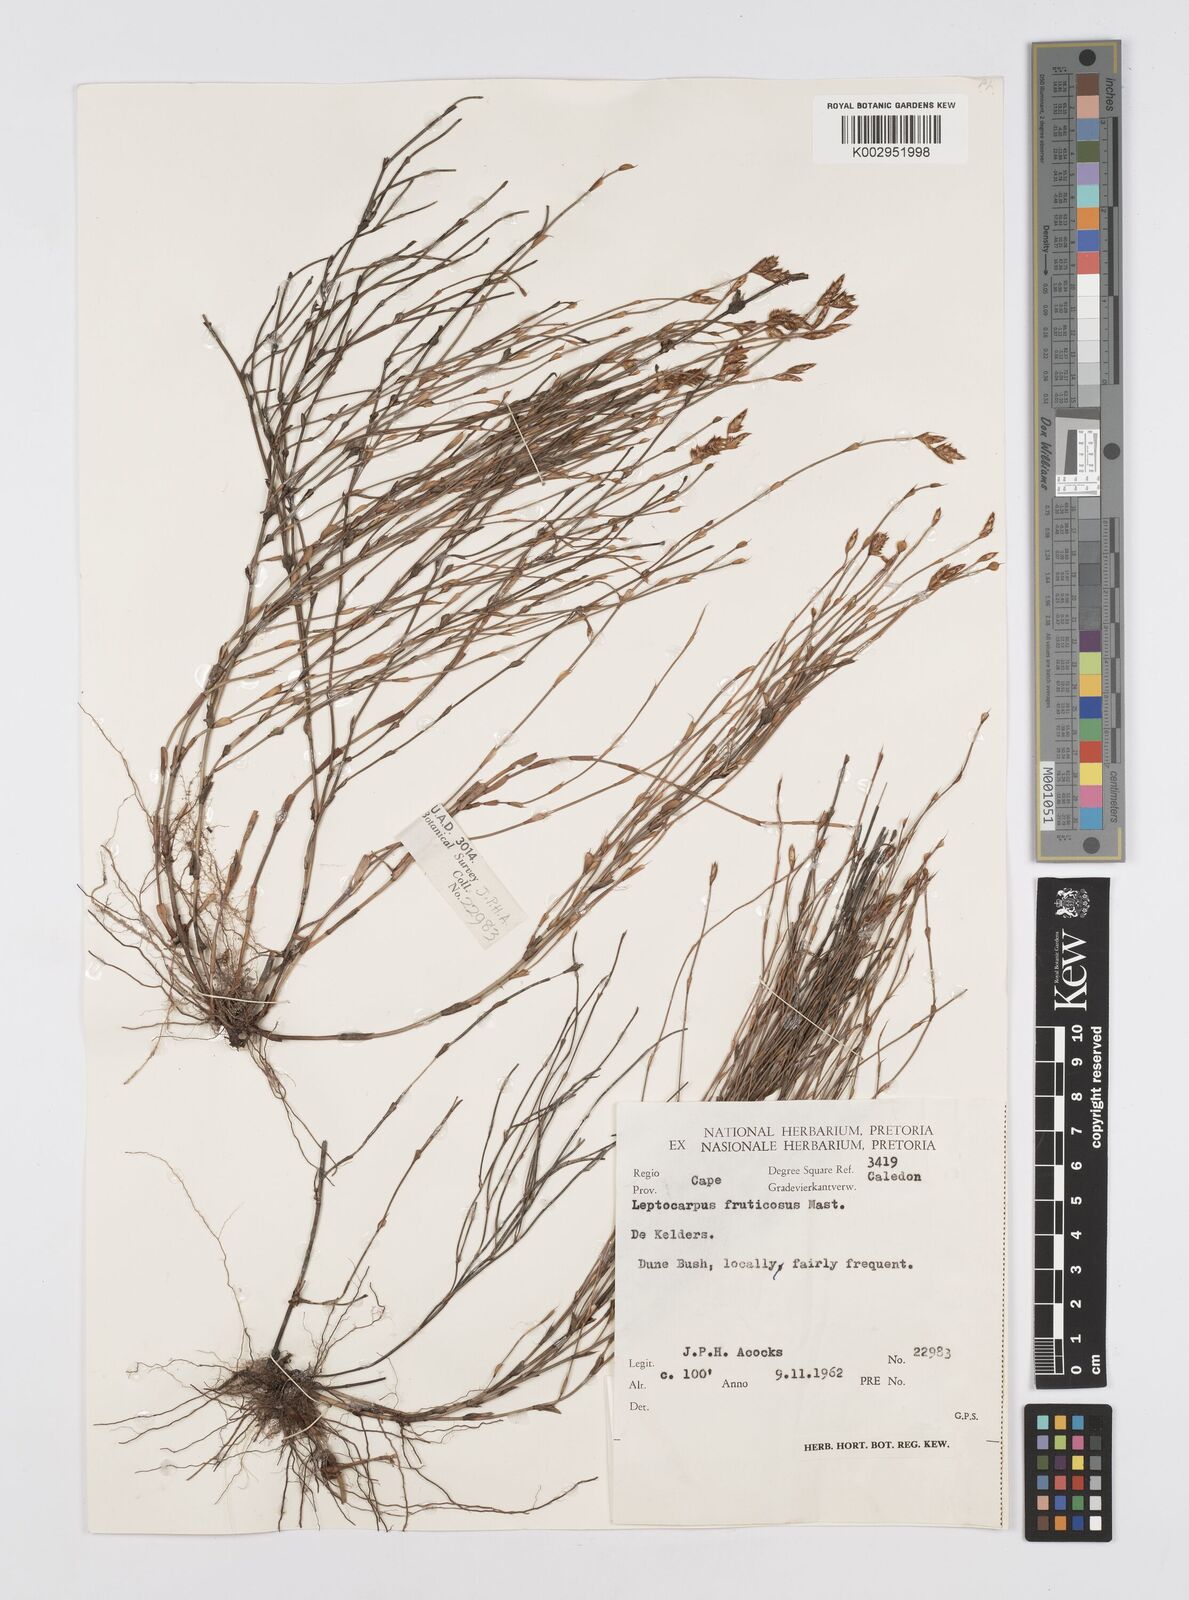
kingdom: Plantae
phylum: Tracheophyta
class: Liliopsida
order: Poales
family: Restionaceae
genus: Rhodocoma
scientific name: Rhodocoma fruticosa
